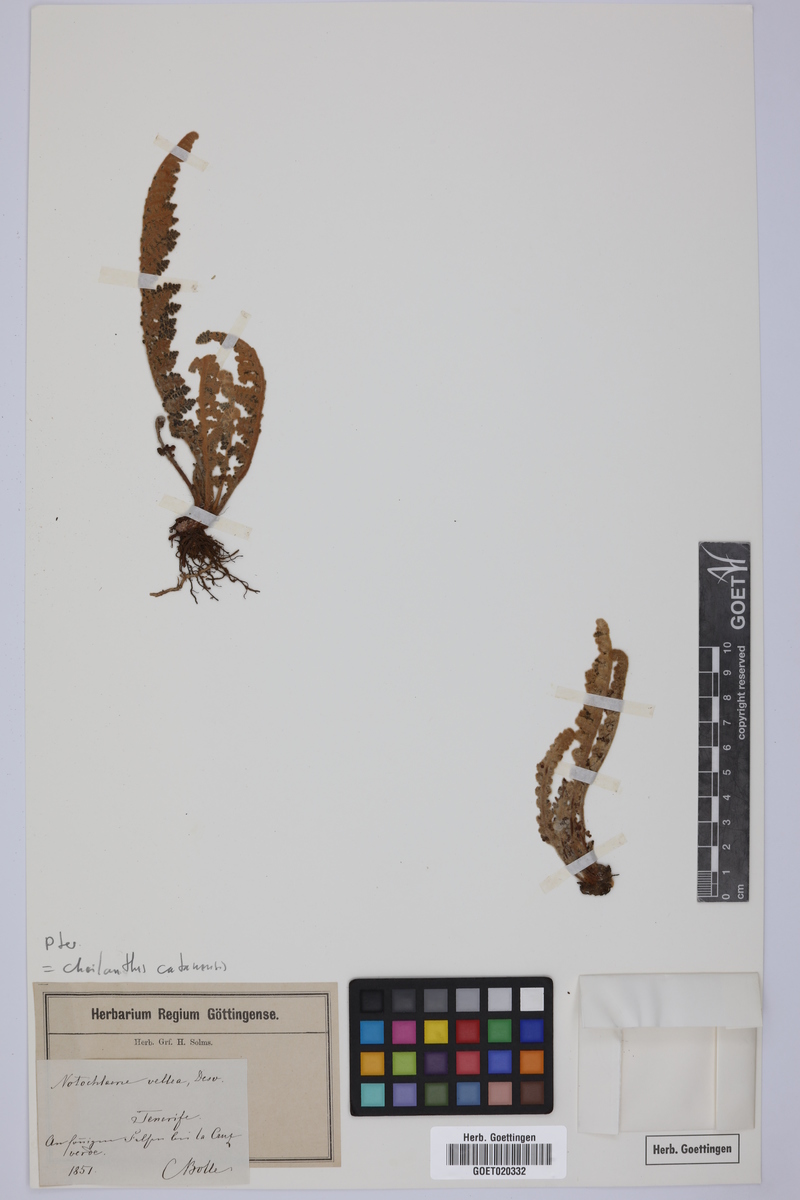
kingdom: Plantae
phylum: Tracheophyta
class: Polypodiopsida
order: Polypodiales
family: Pteridaceae
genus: Cosentinia
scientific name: Cosentinia vellea
